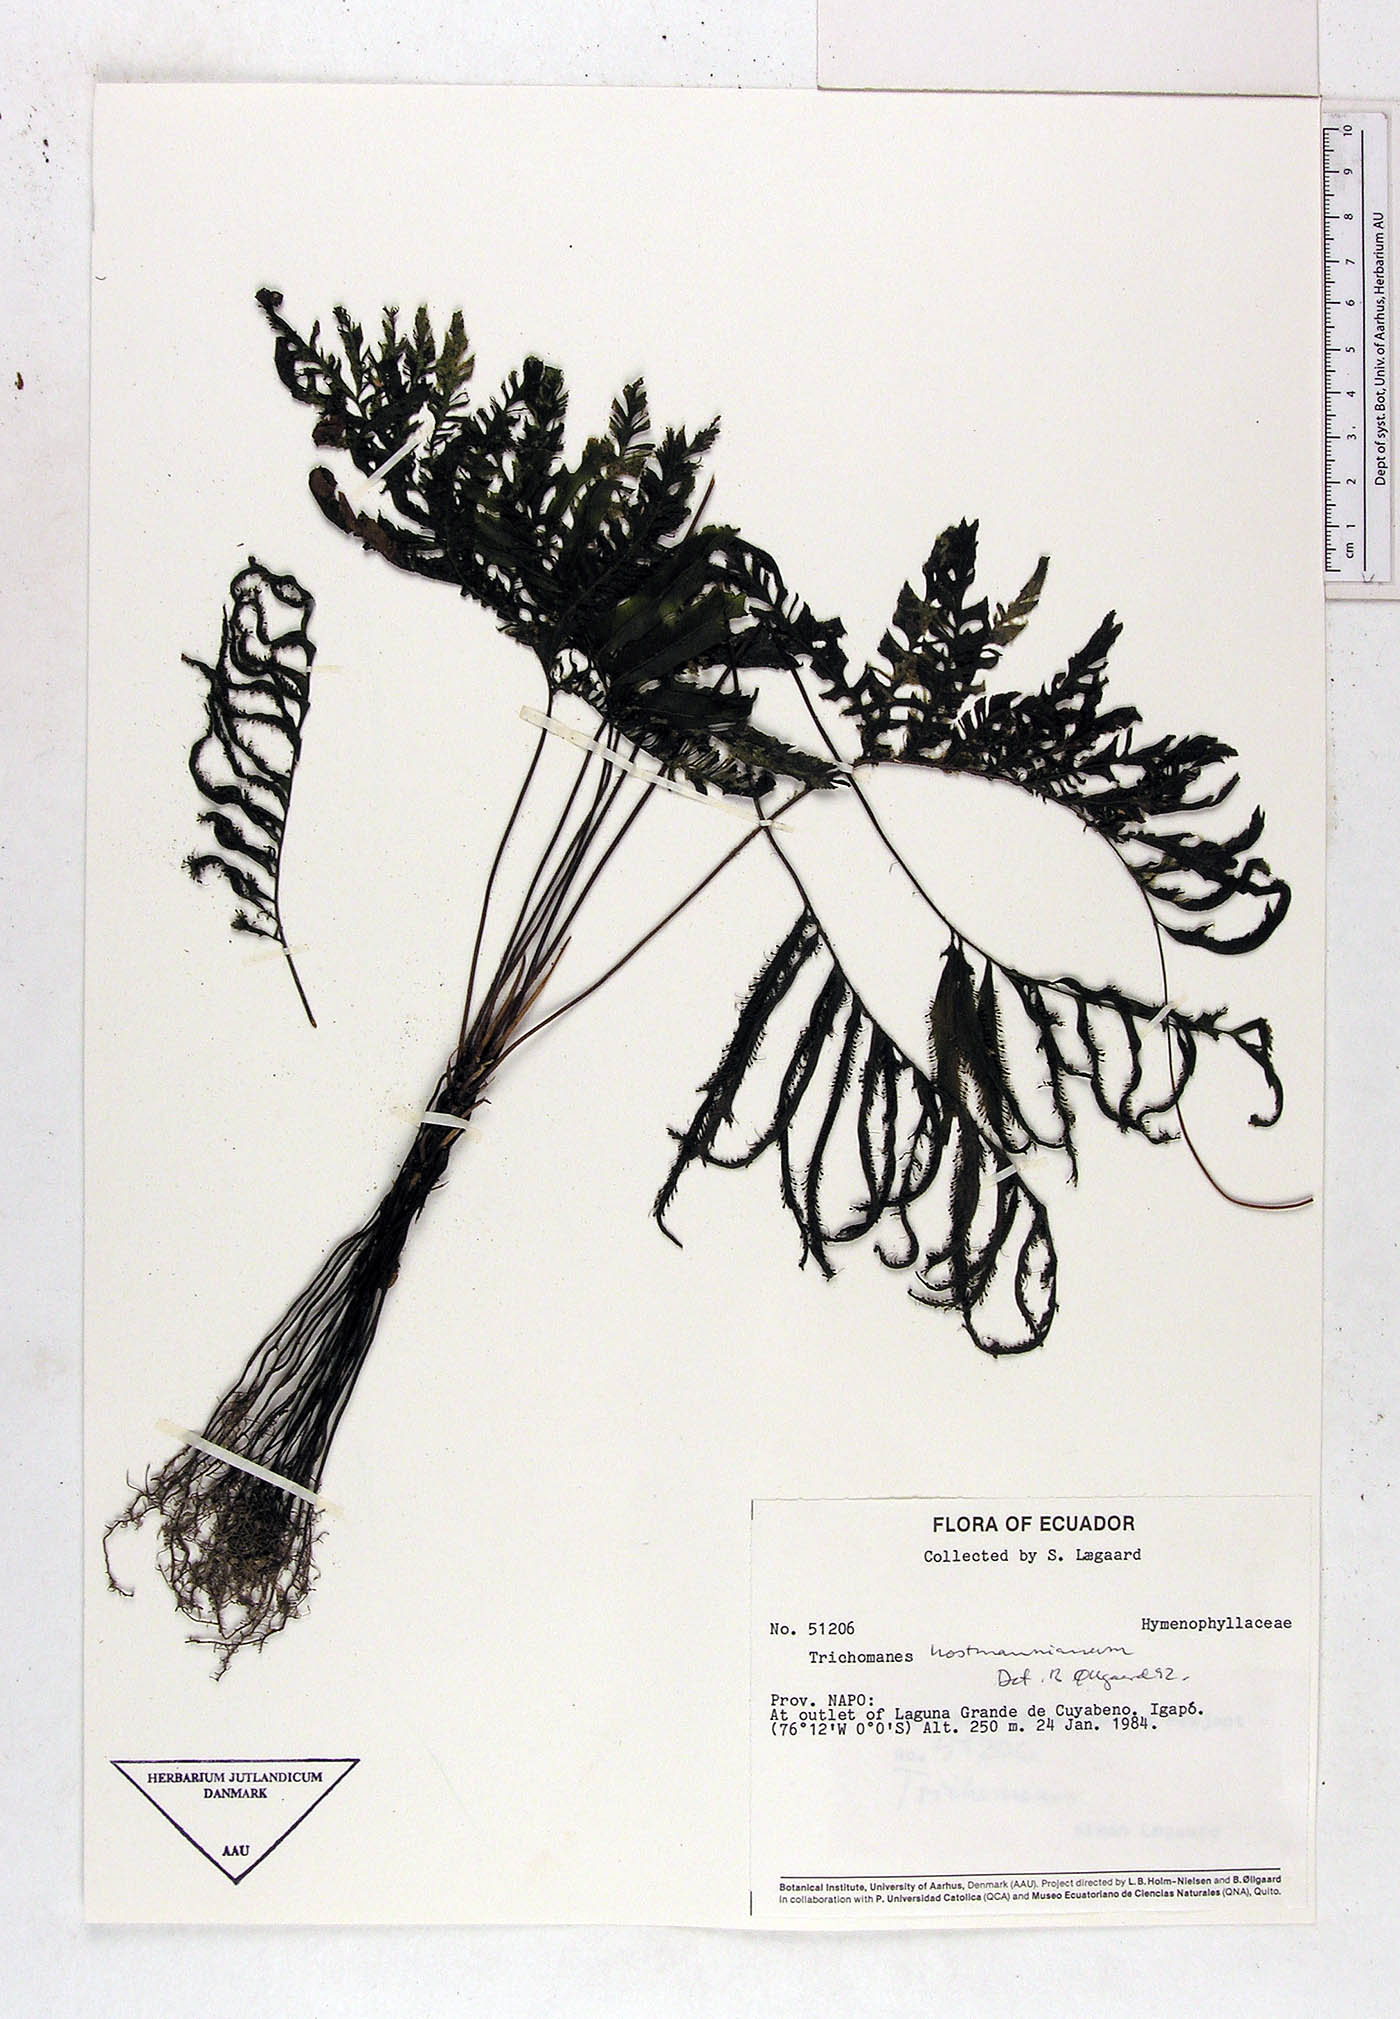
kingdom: Plantae
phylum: Tracheophyta
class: Polypodiopsida
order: Hymenophyllales
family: Hymenophyllaceae
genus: Trichomanes
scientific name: Trichomanes
